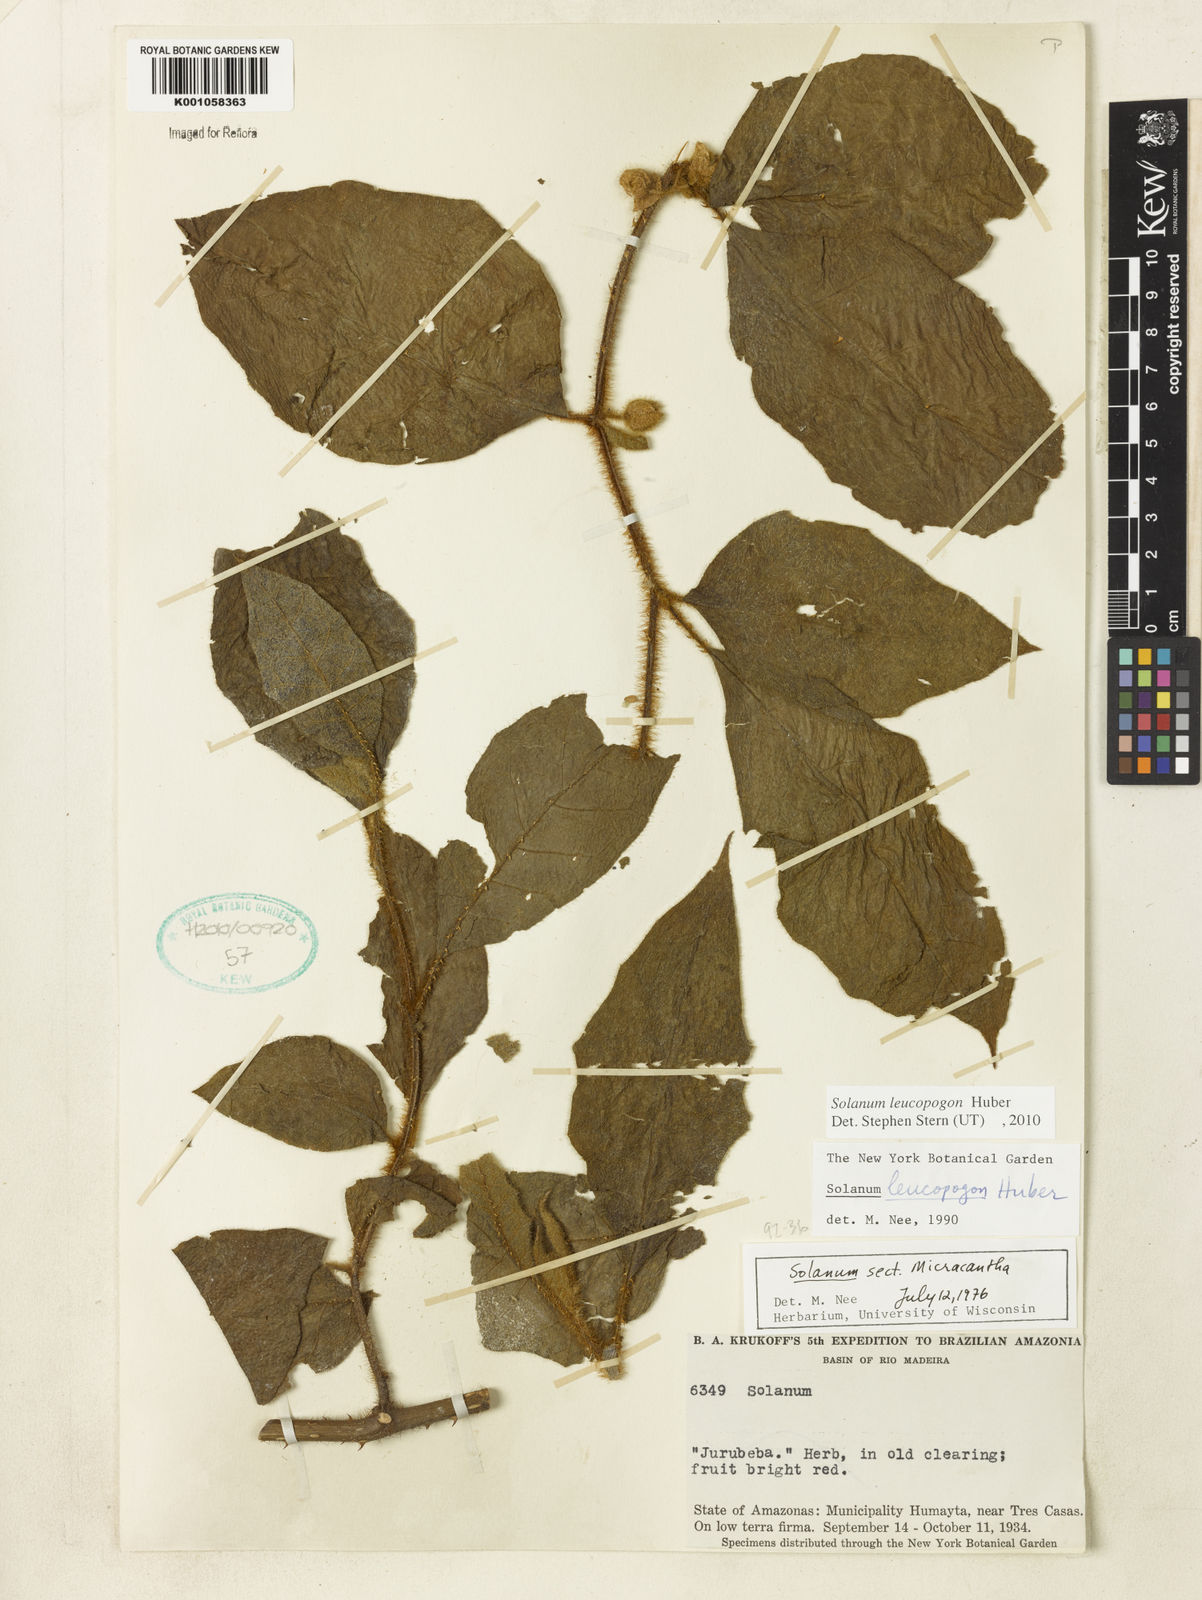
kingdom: Plantae
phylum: Tracheophyta
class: Magnoliopsida
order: Solanales
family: Solanaceae
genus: Solanum
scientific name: Solanum leucopogon
